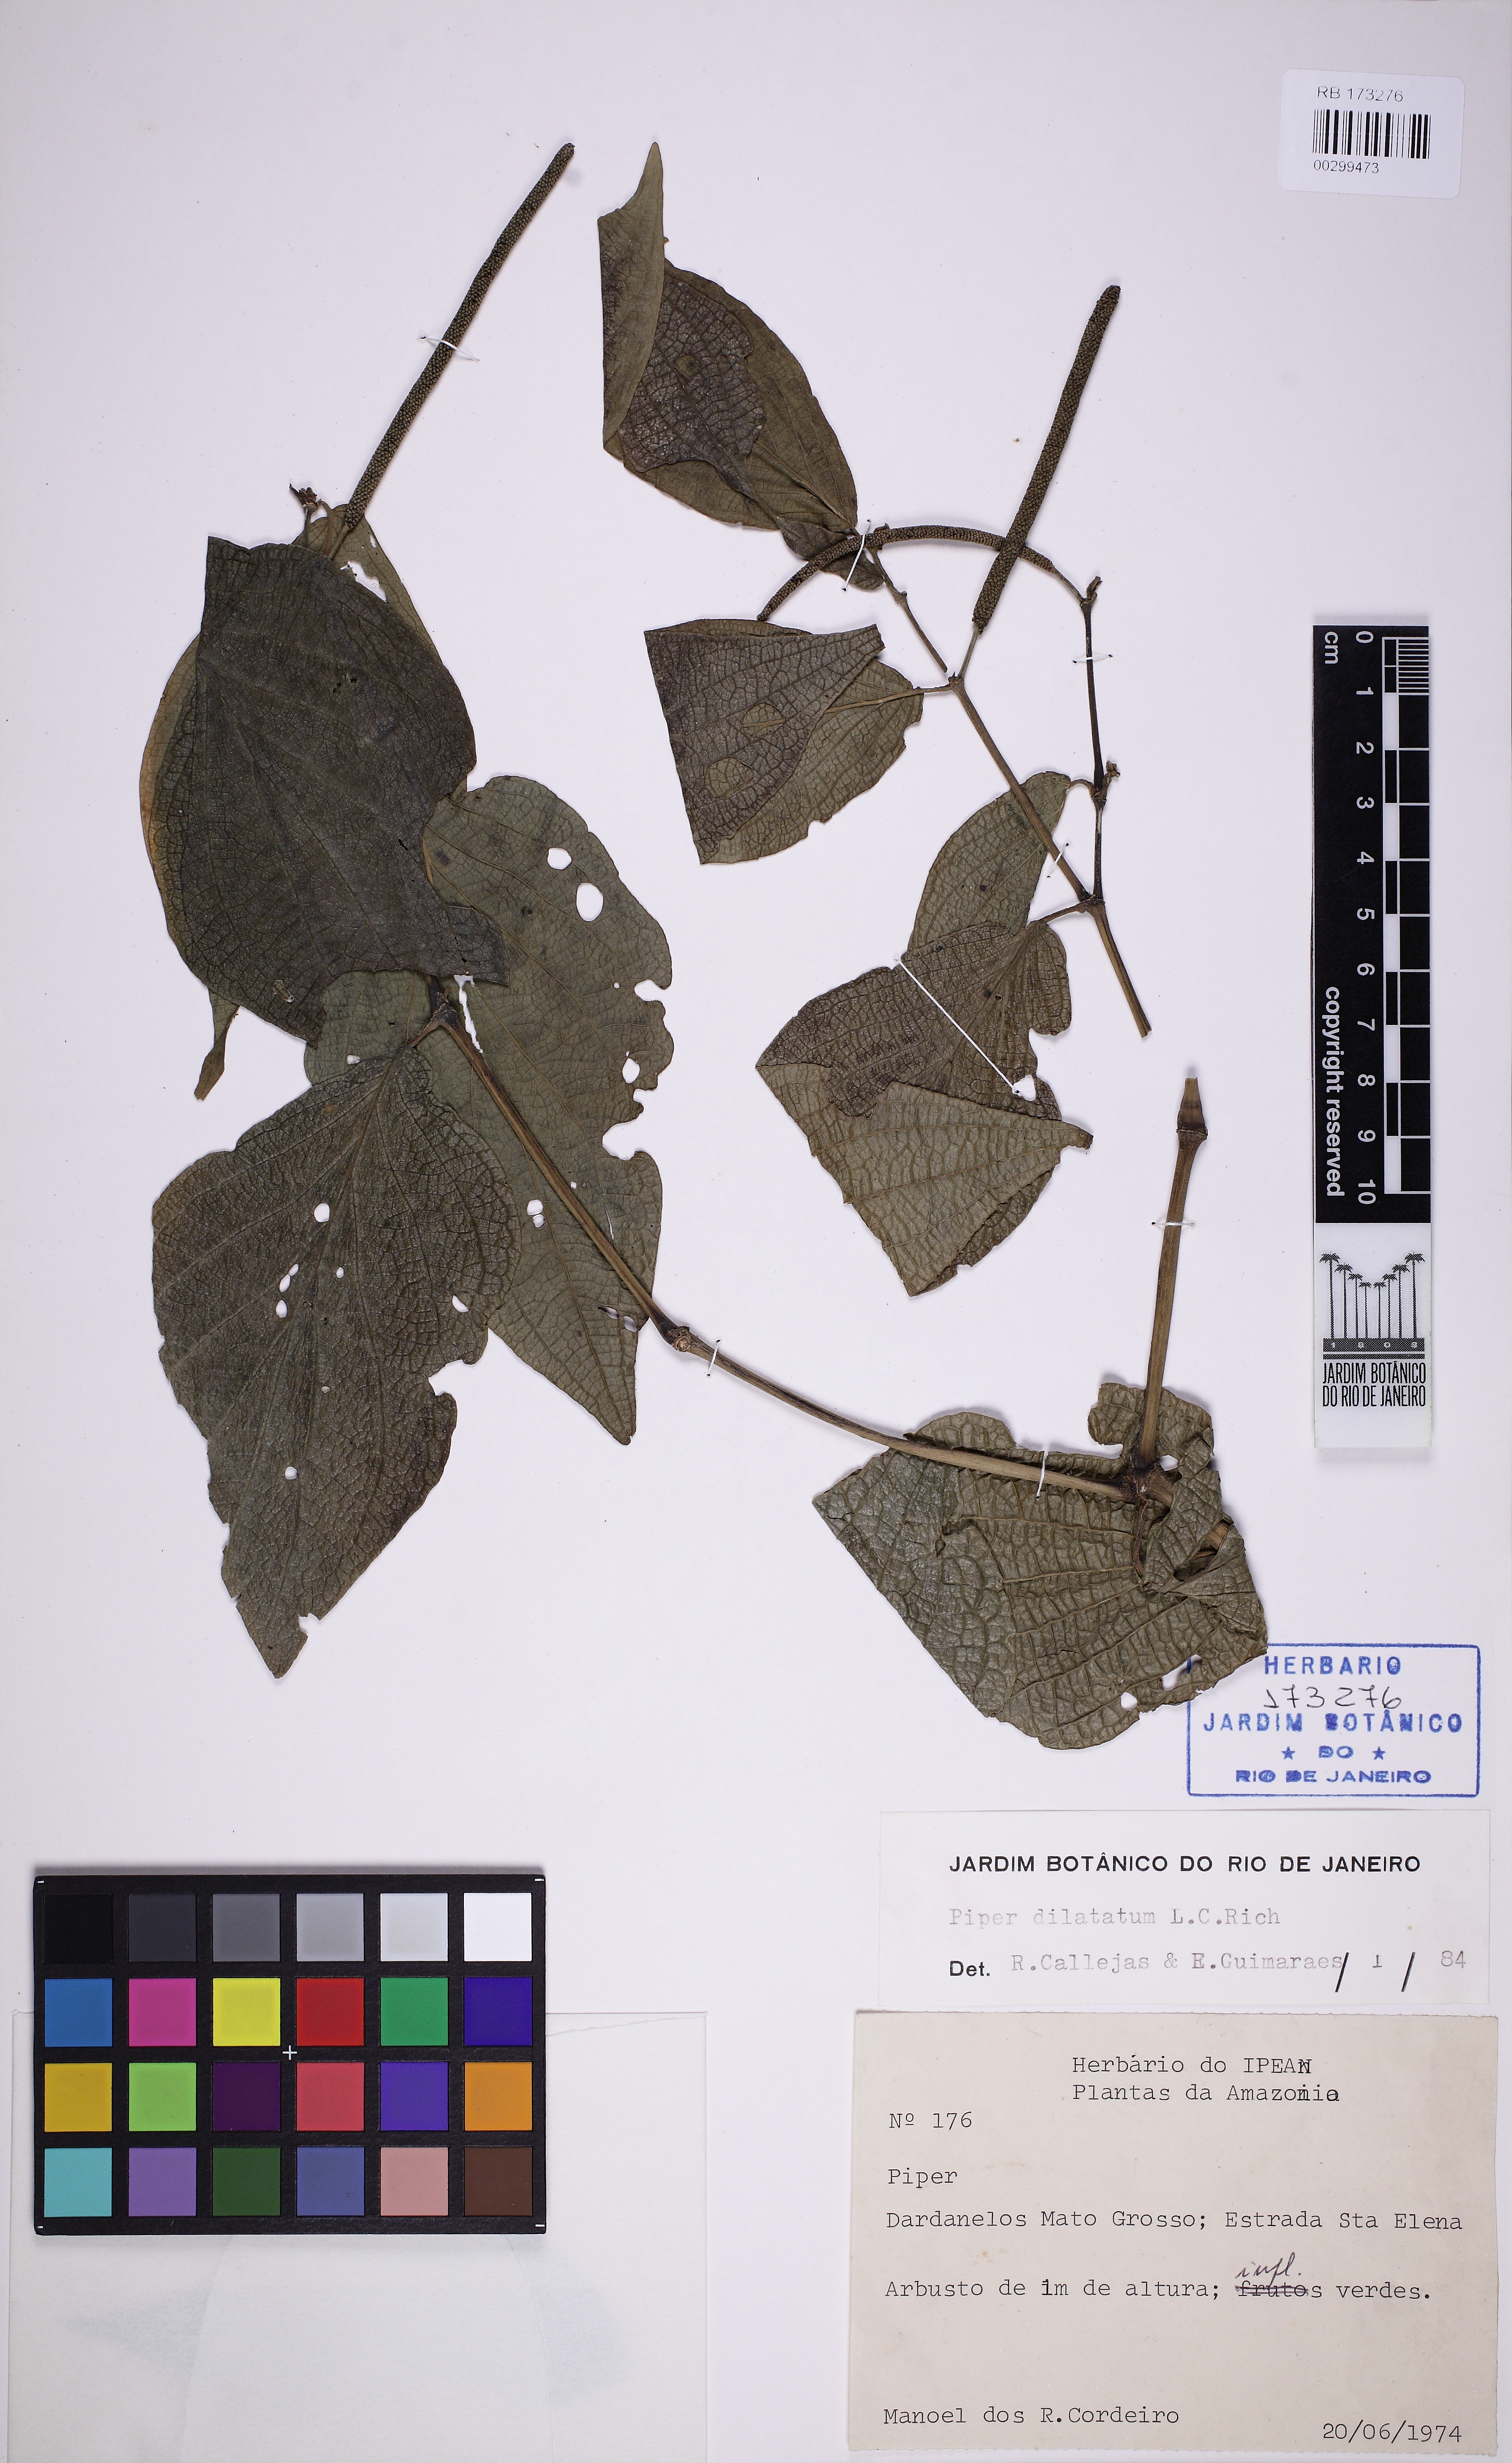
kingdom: Plantae
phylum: Tracheophyta
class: Magnoliopsida
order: Piperales
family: Piperaceae
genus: Piper
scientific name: Piper dilatatum
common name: Higuillo
